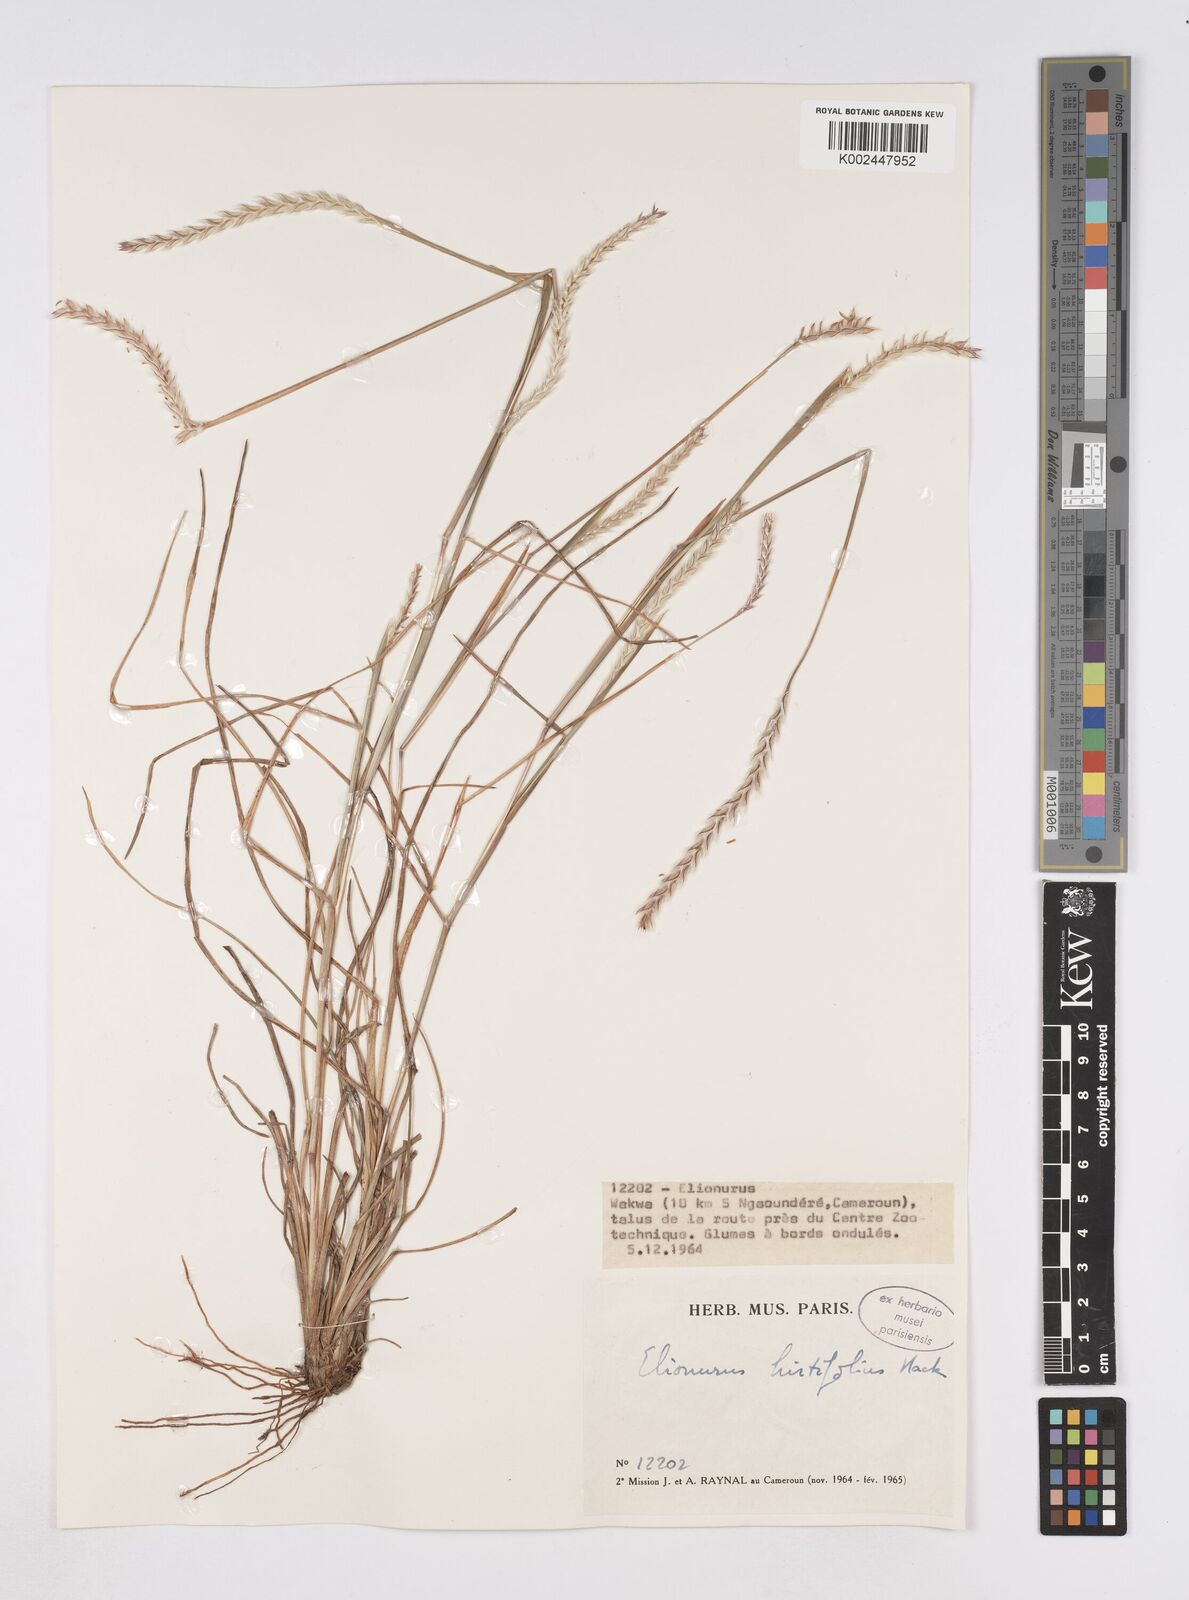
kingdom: Plantae
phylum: Tracheophyta
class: Liliopsida
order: Poales
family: Poaceae
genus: Elionurus
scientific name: Elionurus hirtifolius
